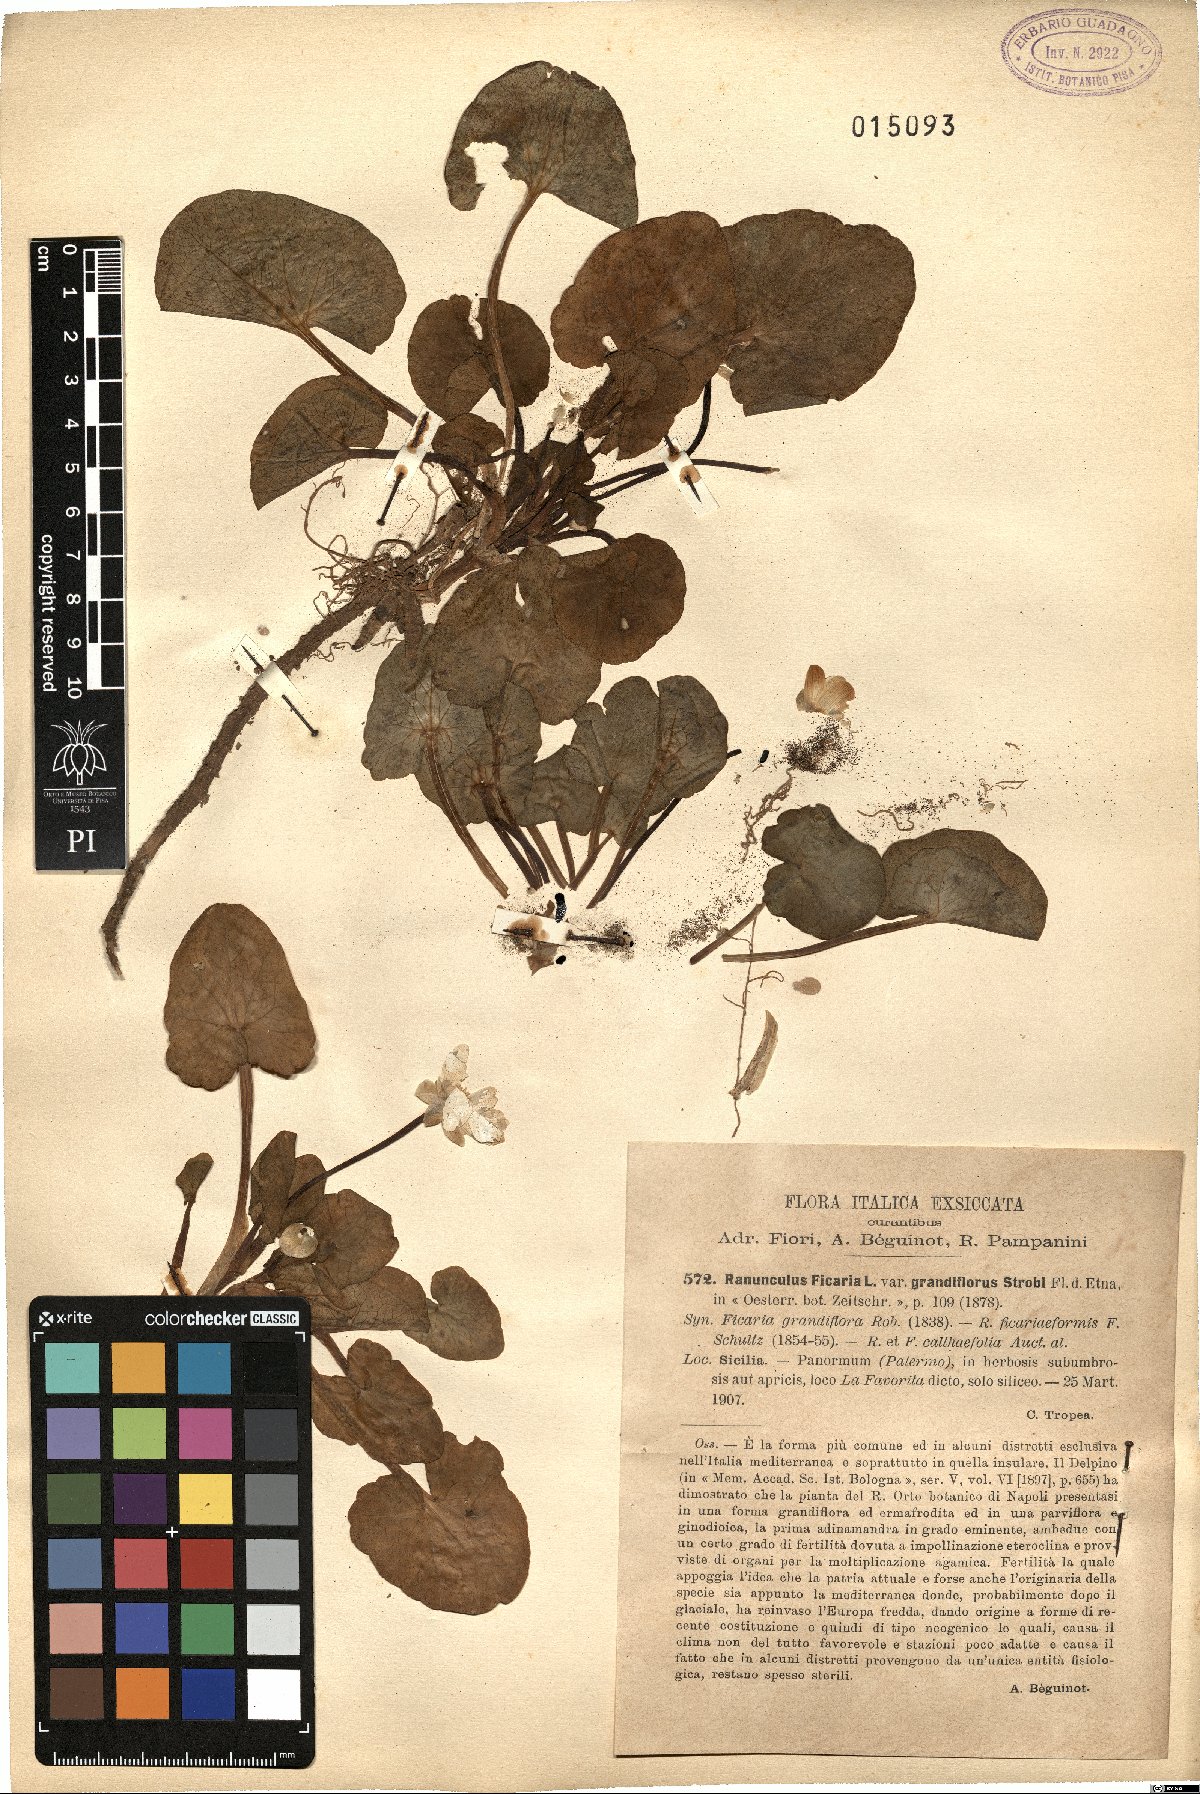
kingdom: Plantae
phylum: Tracheophyta
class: Magnoliopsida
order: Ranunculales
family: Ranunculaceae
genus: Ficaria
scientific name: Ficaria grandiflora
